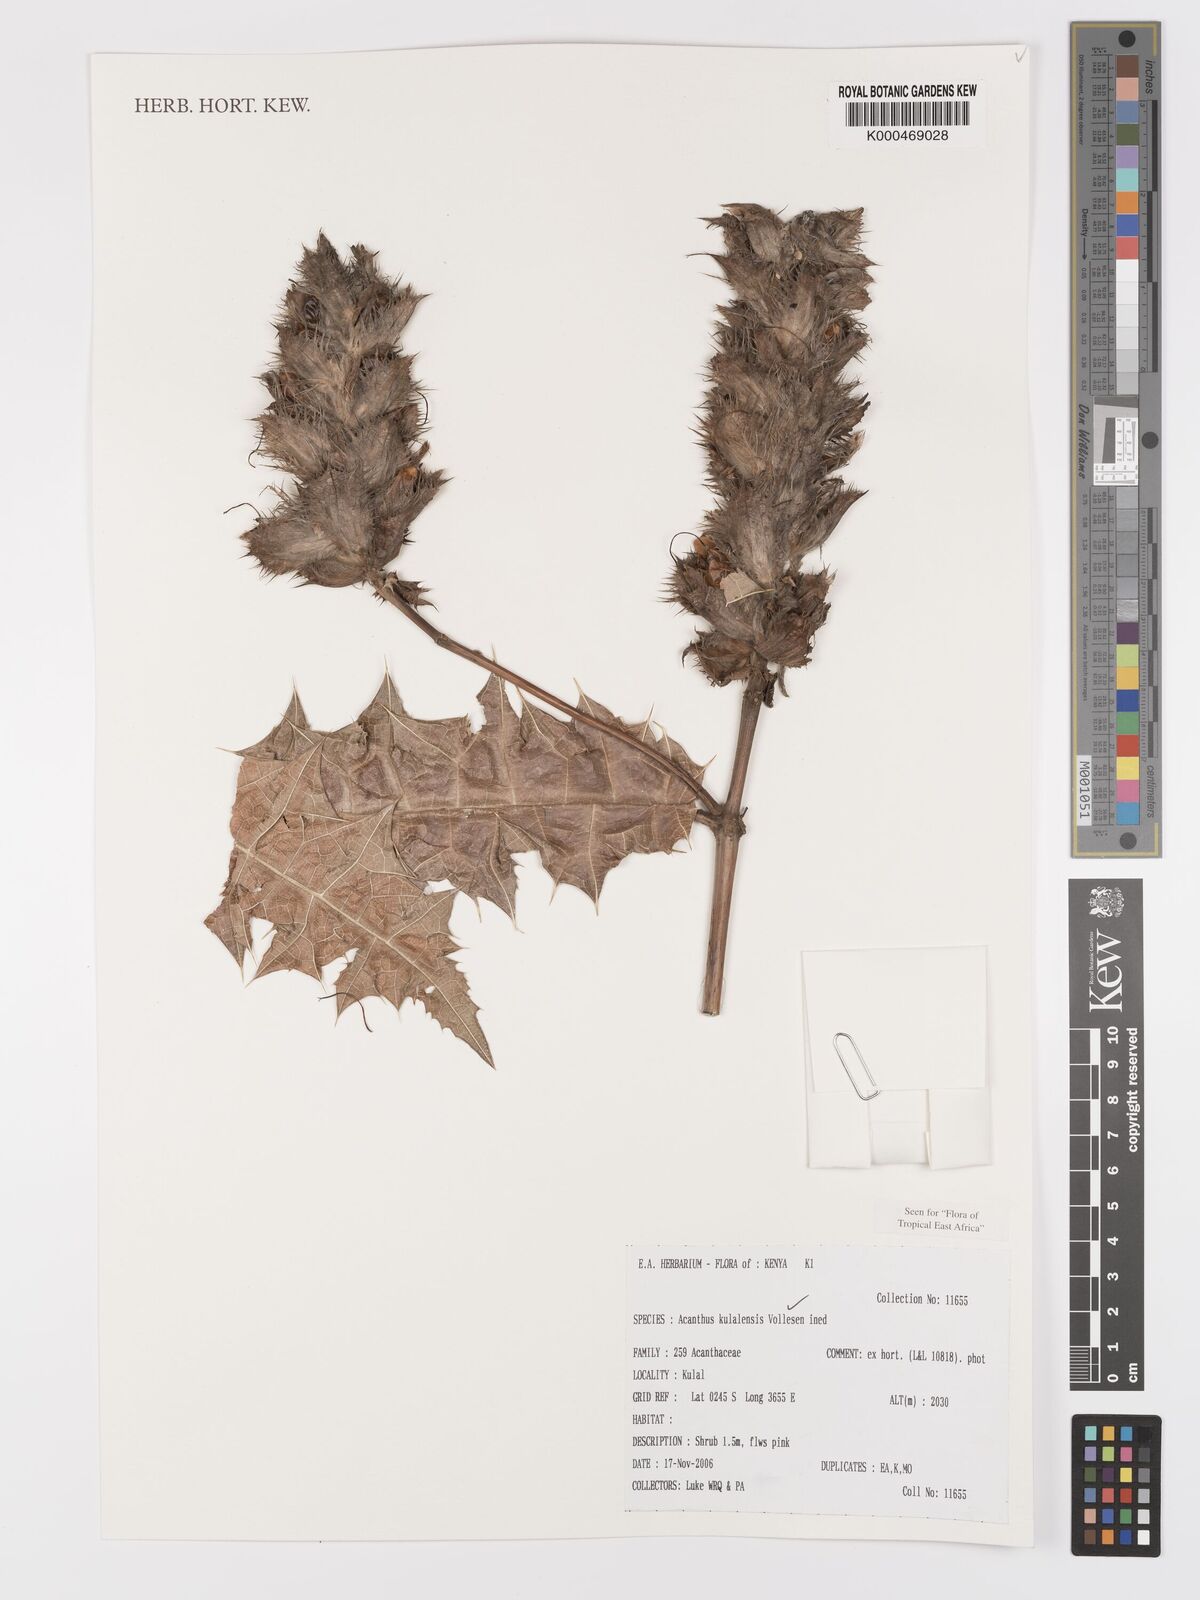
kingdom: Plantae
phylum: Tracheophyta
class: Magnoliopsida
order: Lamiales
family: Acanthaceae
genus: Acanthus
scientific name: Acanthus kulalensis
